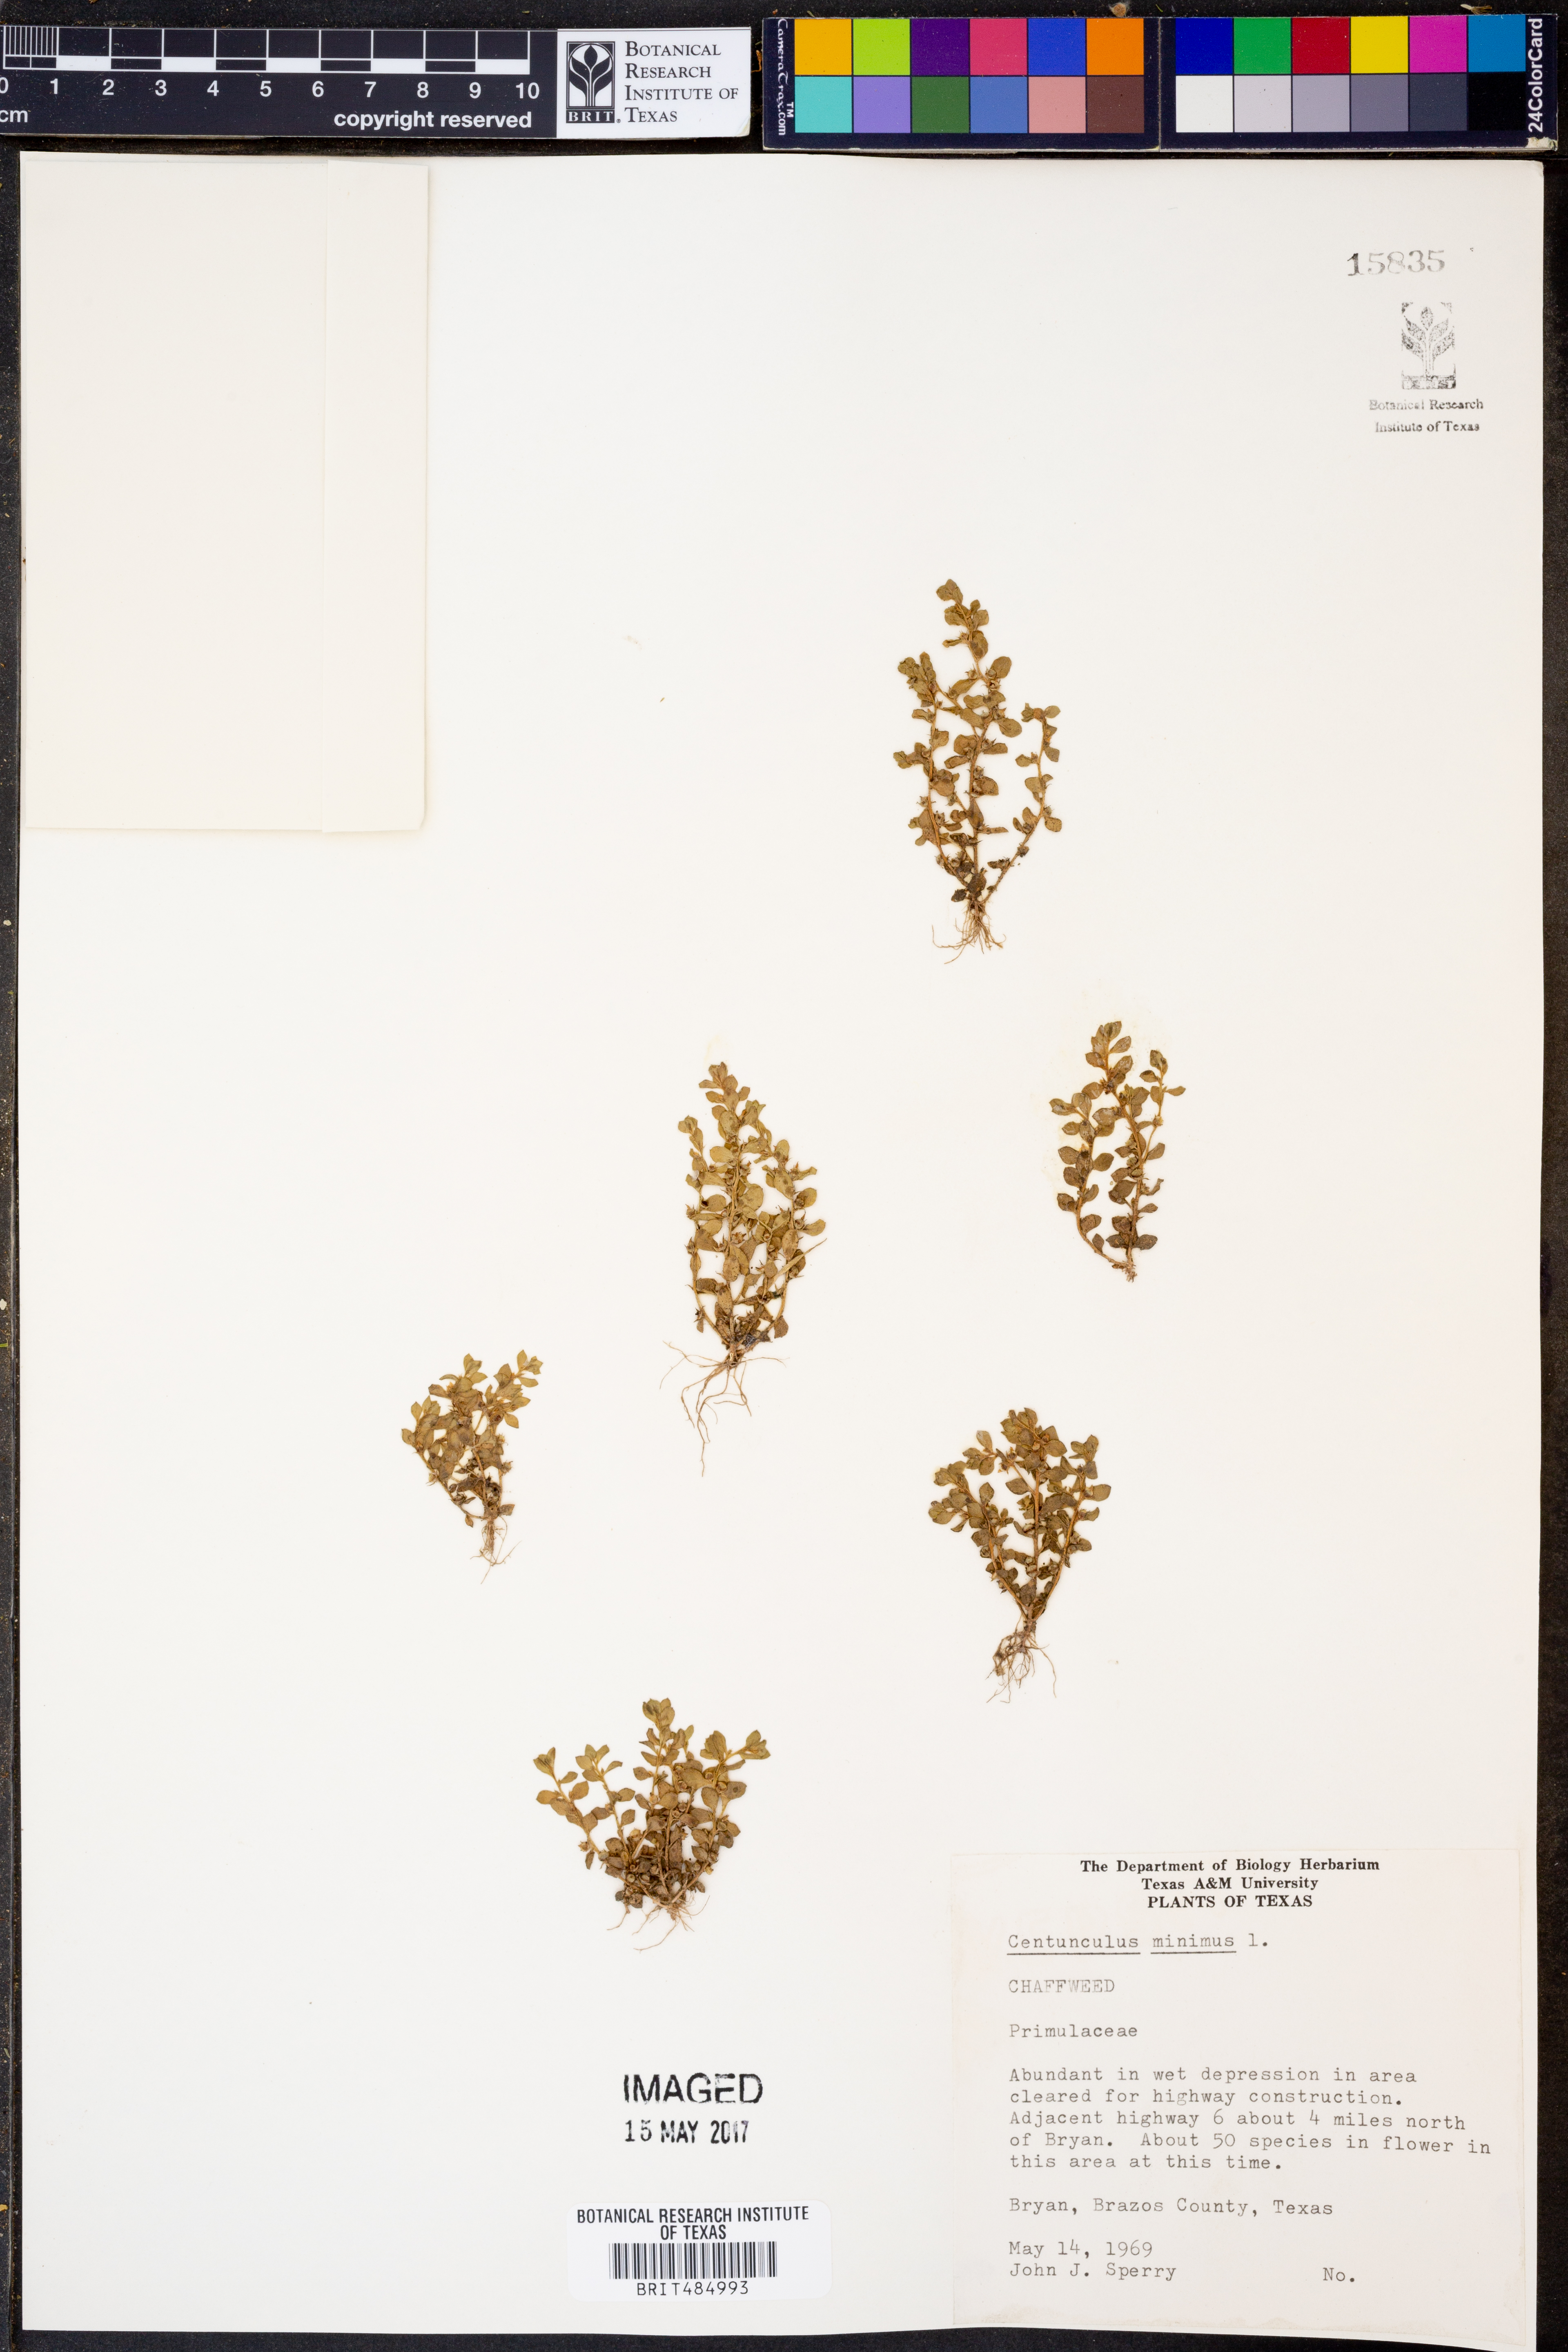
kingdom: Plantae
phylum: Tracheophyta
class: Magnoliopsida
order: Ericales
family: Primulaceae
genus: Lysimachia
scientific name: Lysimachia minima
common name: Chaffweed
